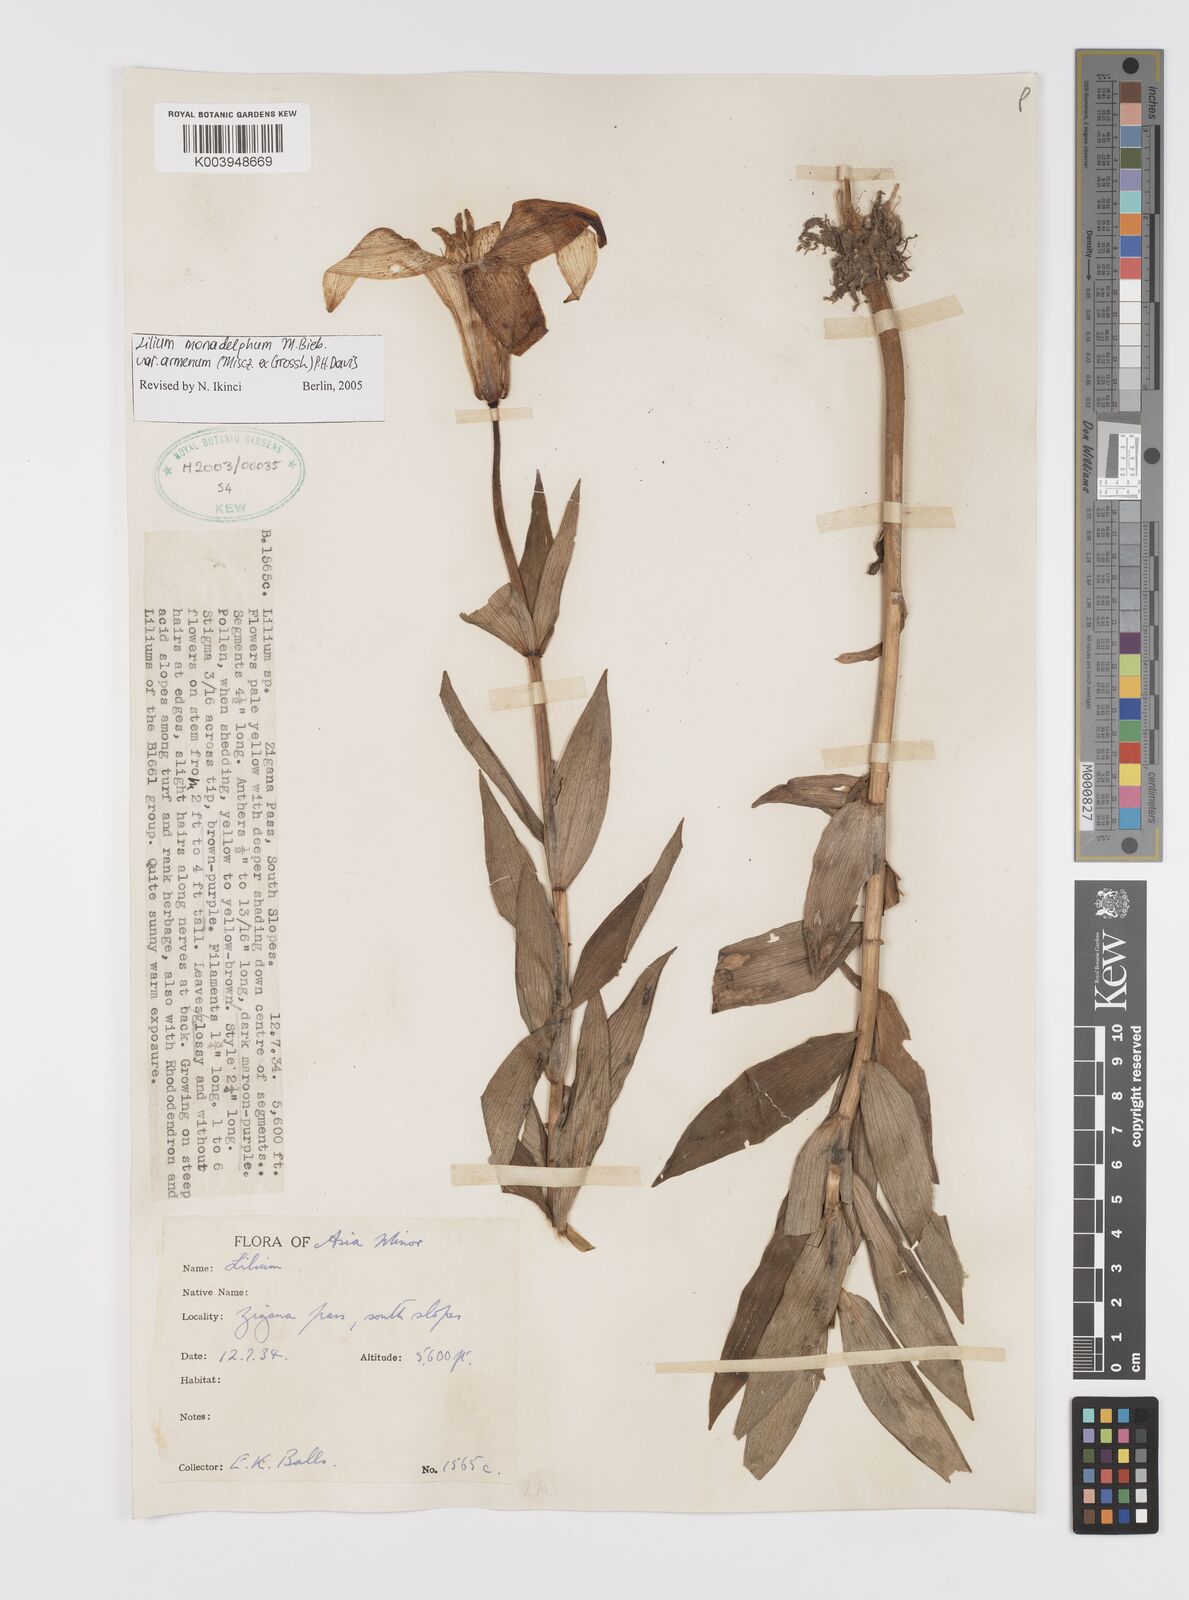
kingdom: Plantae
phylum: Tracheophyta
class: Liliopsida
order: Liliales
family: Liliaceae
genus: Lilium
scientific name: Lilium armenum
